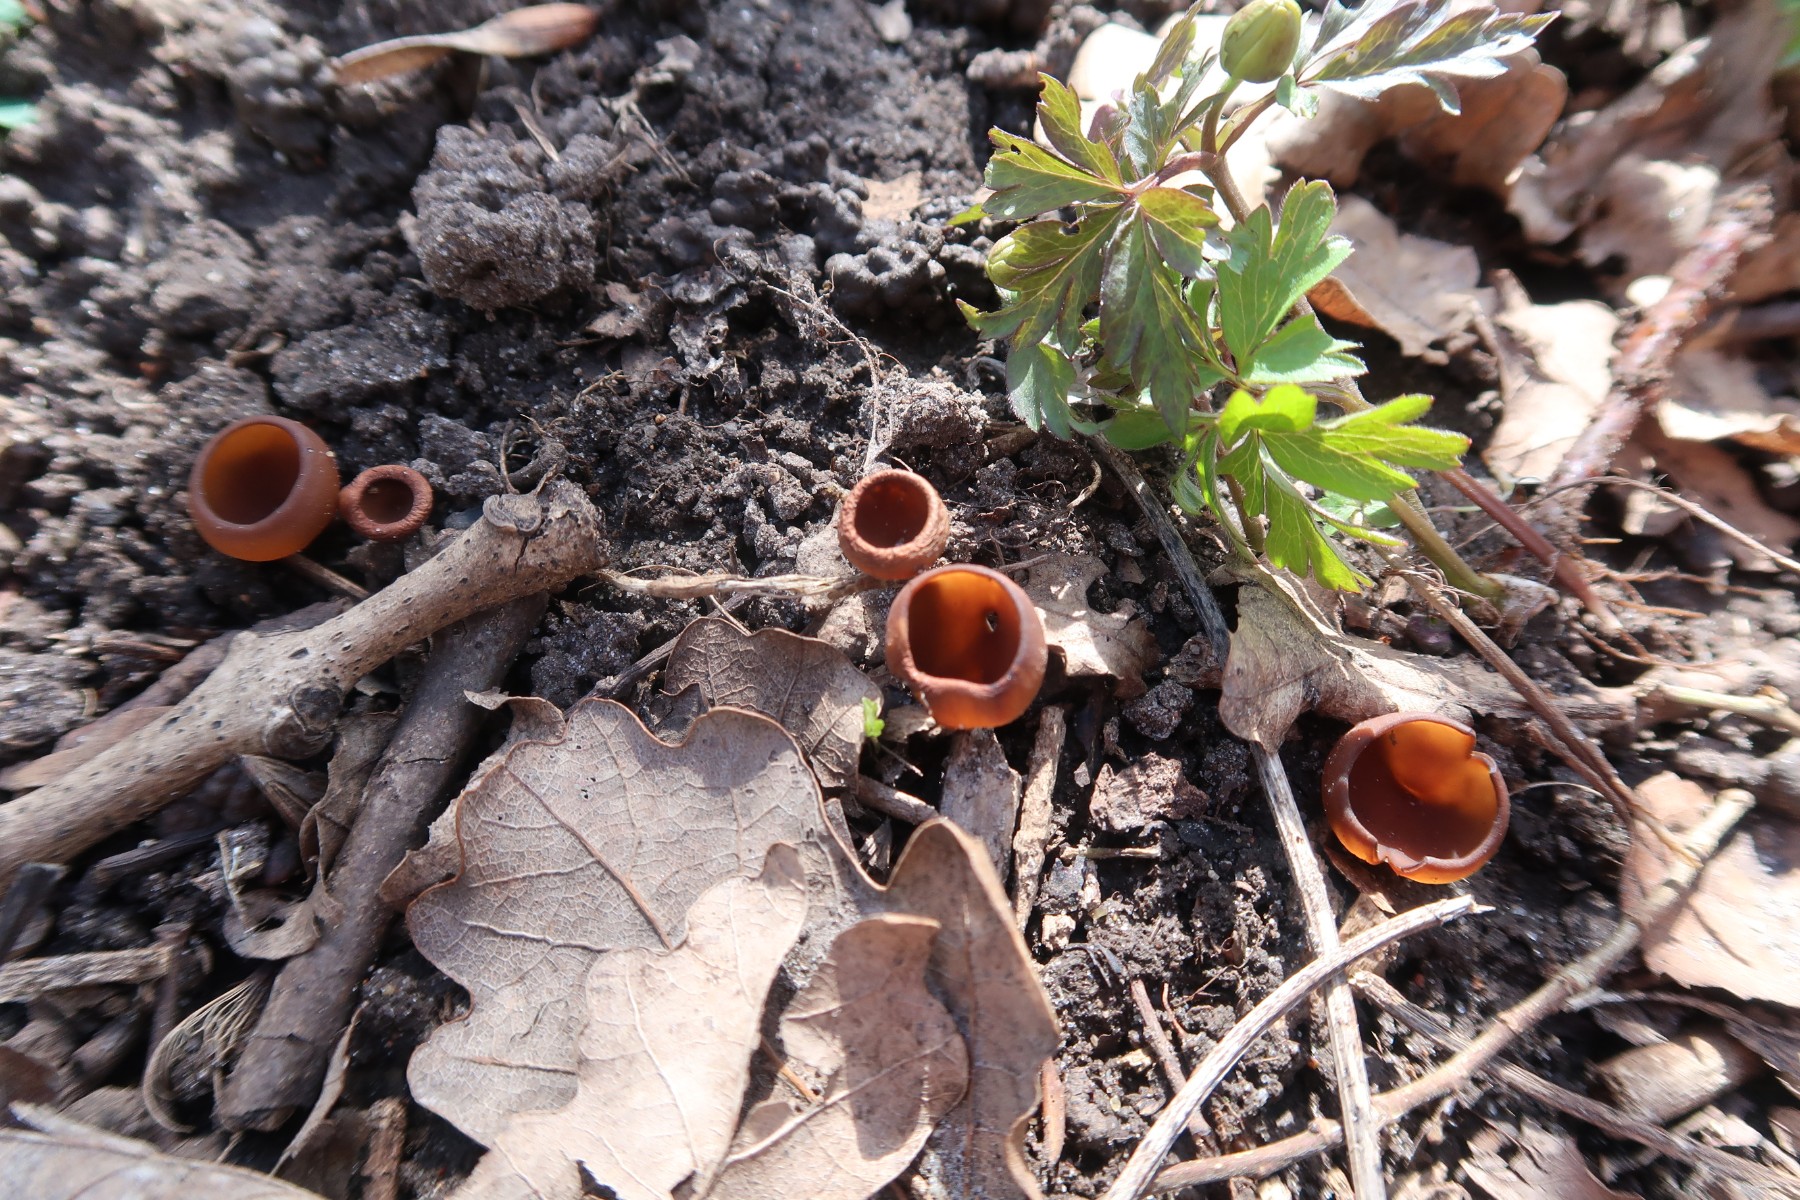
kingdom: Fungi
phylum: Ascomycota
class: Leotiomycetes
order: Helotiales
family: Sclerotiniaceae
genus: Dumontinia
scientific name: Dumontinia tuberosa
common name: anemone-knoldskive
